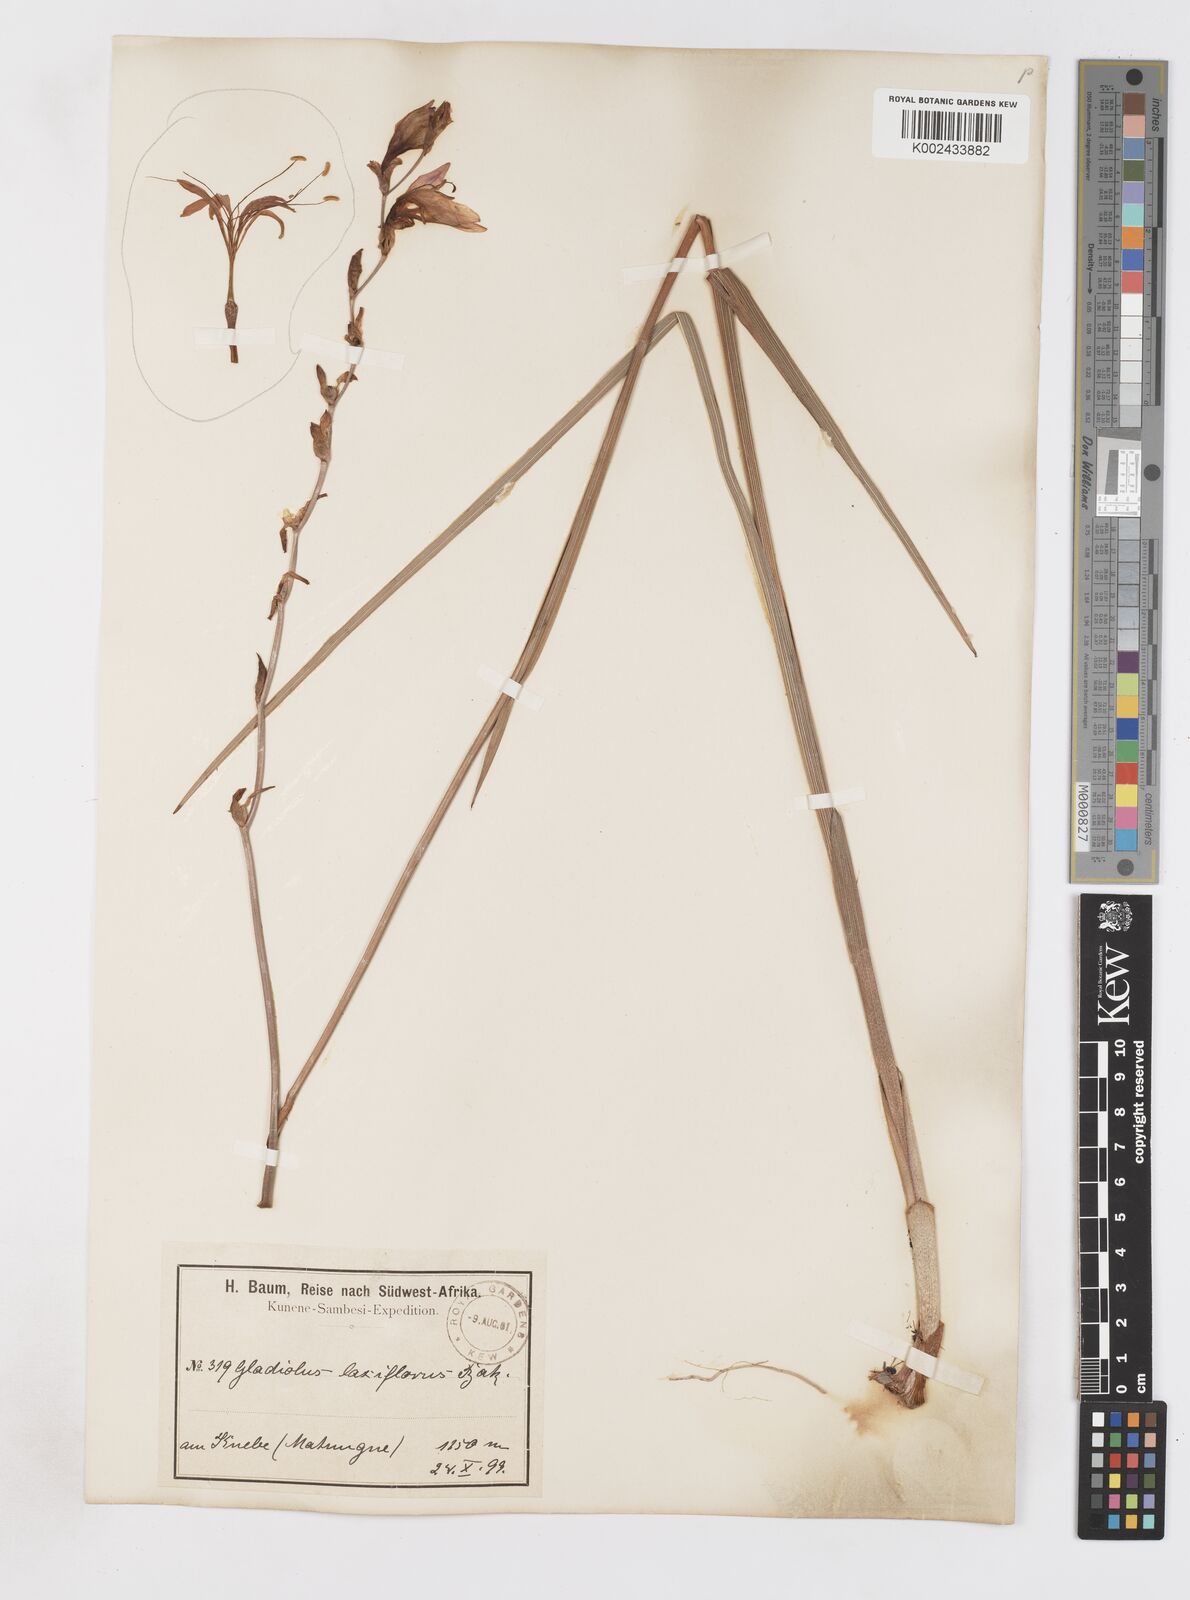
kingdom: Plantae
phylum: Tracheophyta
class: Liliopsida
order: Asparagales
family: Iridaceae
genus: Gladiolus
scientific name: Gladiolus laxiflorus
